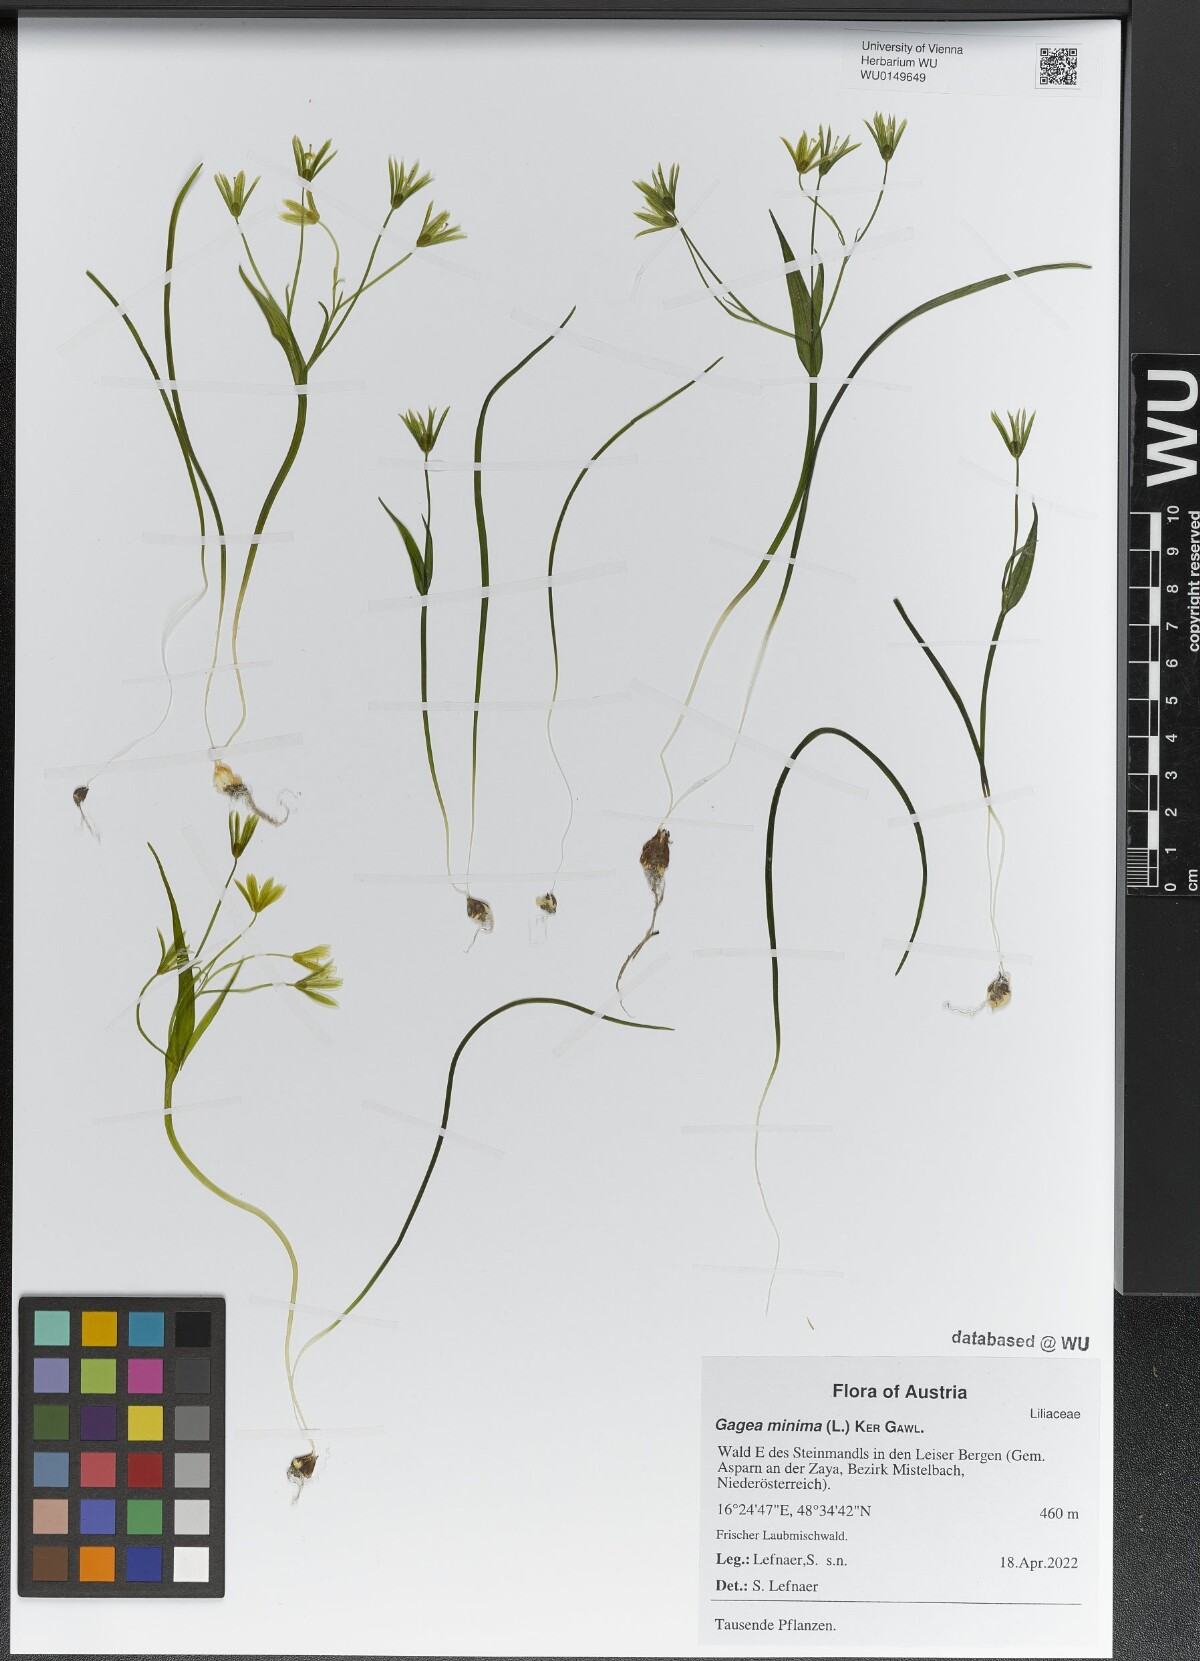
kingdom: Plantae
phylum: Tracheophyta
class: Liliopsida
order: Liliales
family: Liliaceae
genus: Gagea
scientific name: Gagea minima
